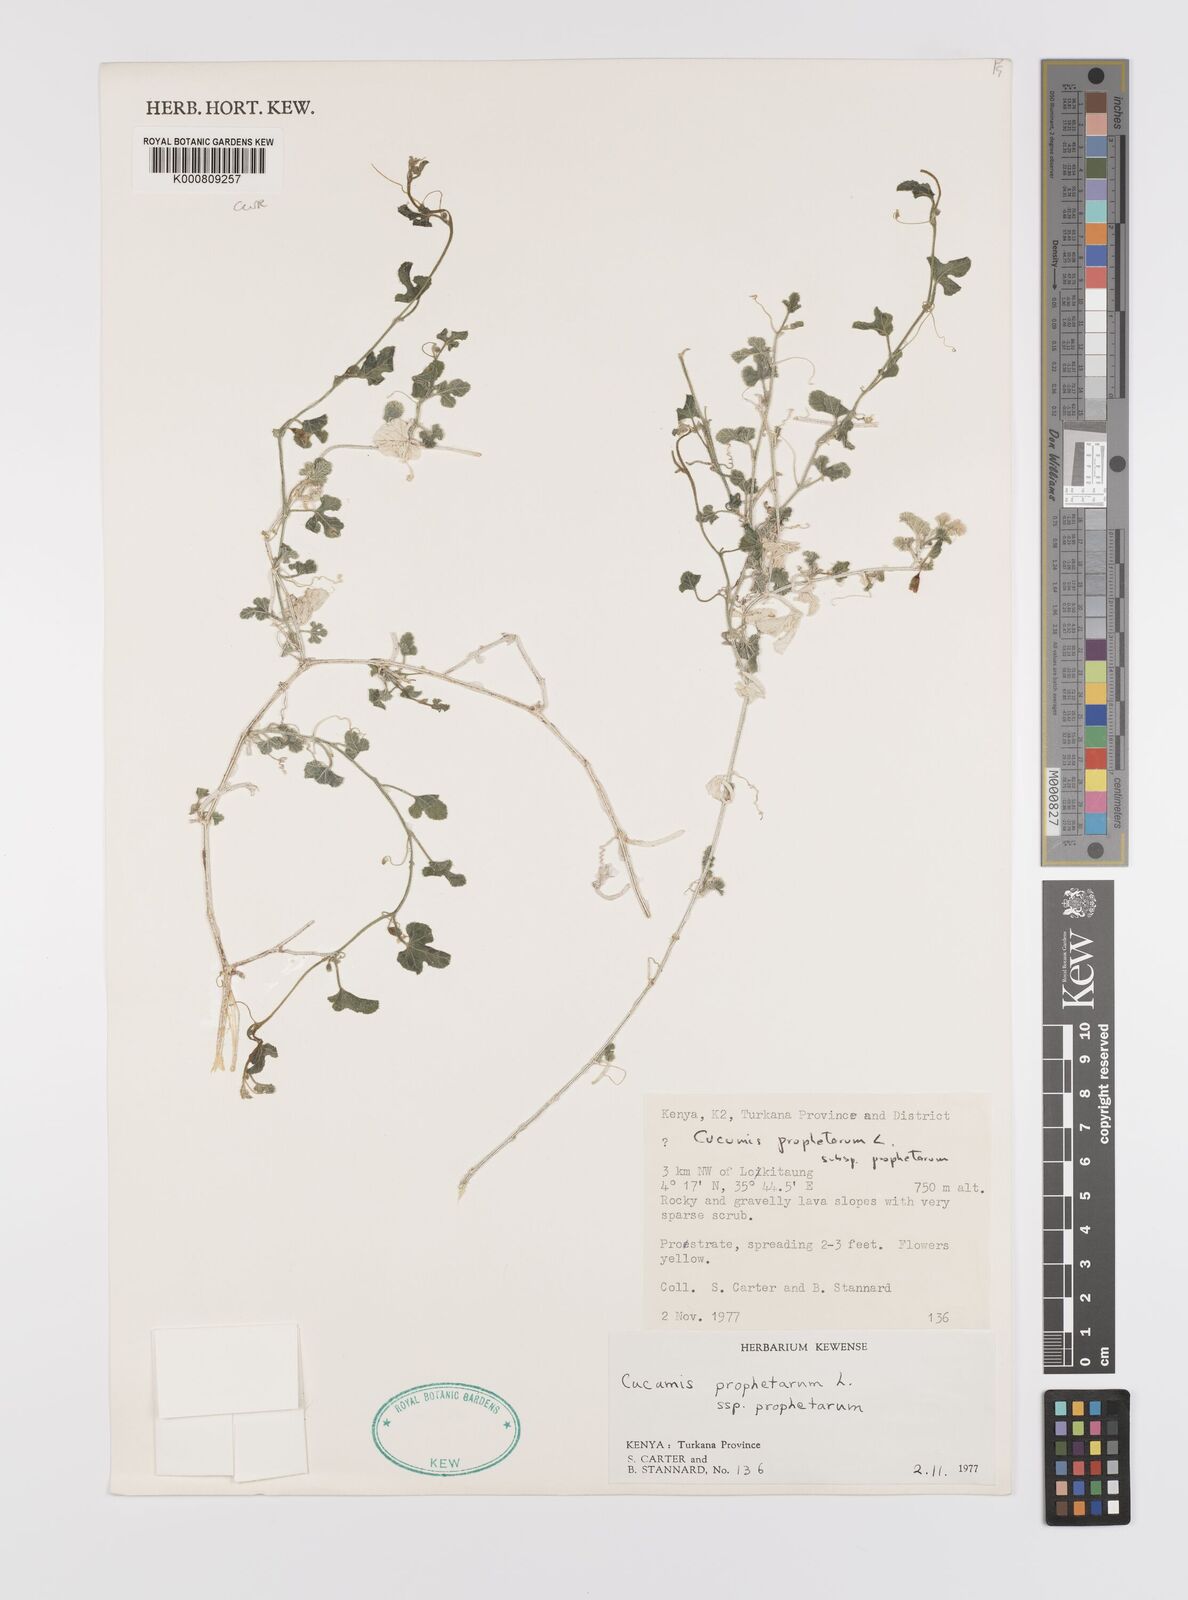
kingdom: Plantae
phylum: Tracheophyta
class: Magnoliopsida
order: Cucurbitales
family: Cucurbitaceae
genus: Cucumis
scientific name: Cucumis prophetarum
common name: Wild cucumber
